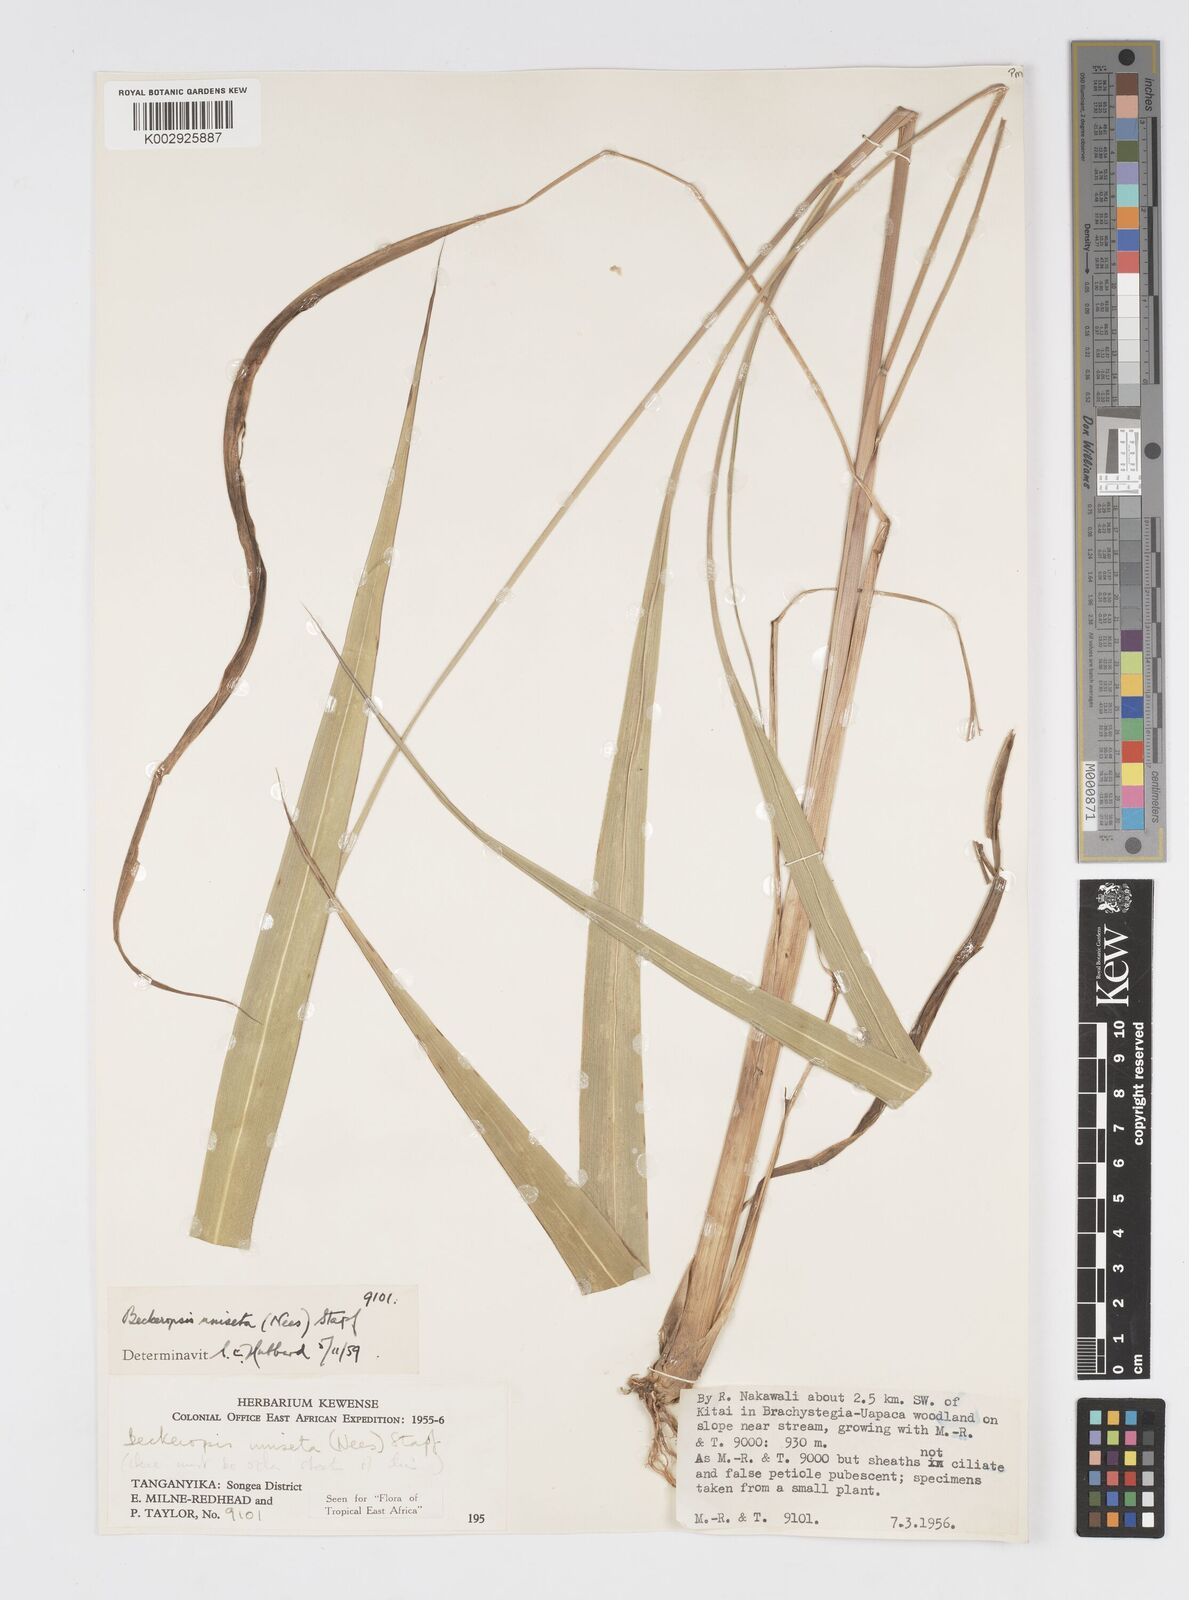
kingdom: Plantae
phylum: Tracheophyta
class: Liliopsida
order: Poales
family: Poaceae
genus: Cenchrus
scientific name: Cenchrus Pennisetum spec
